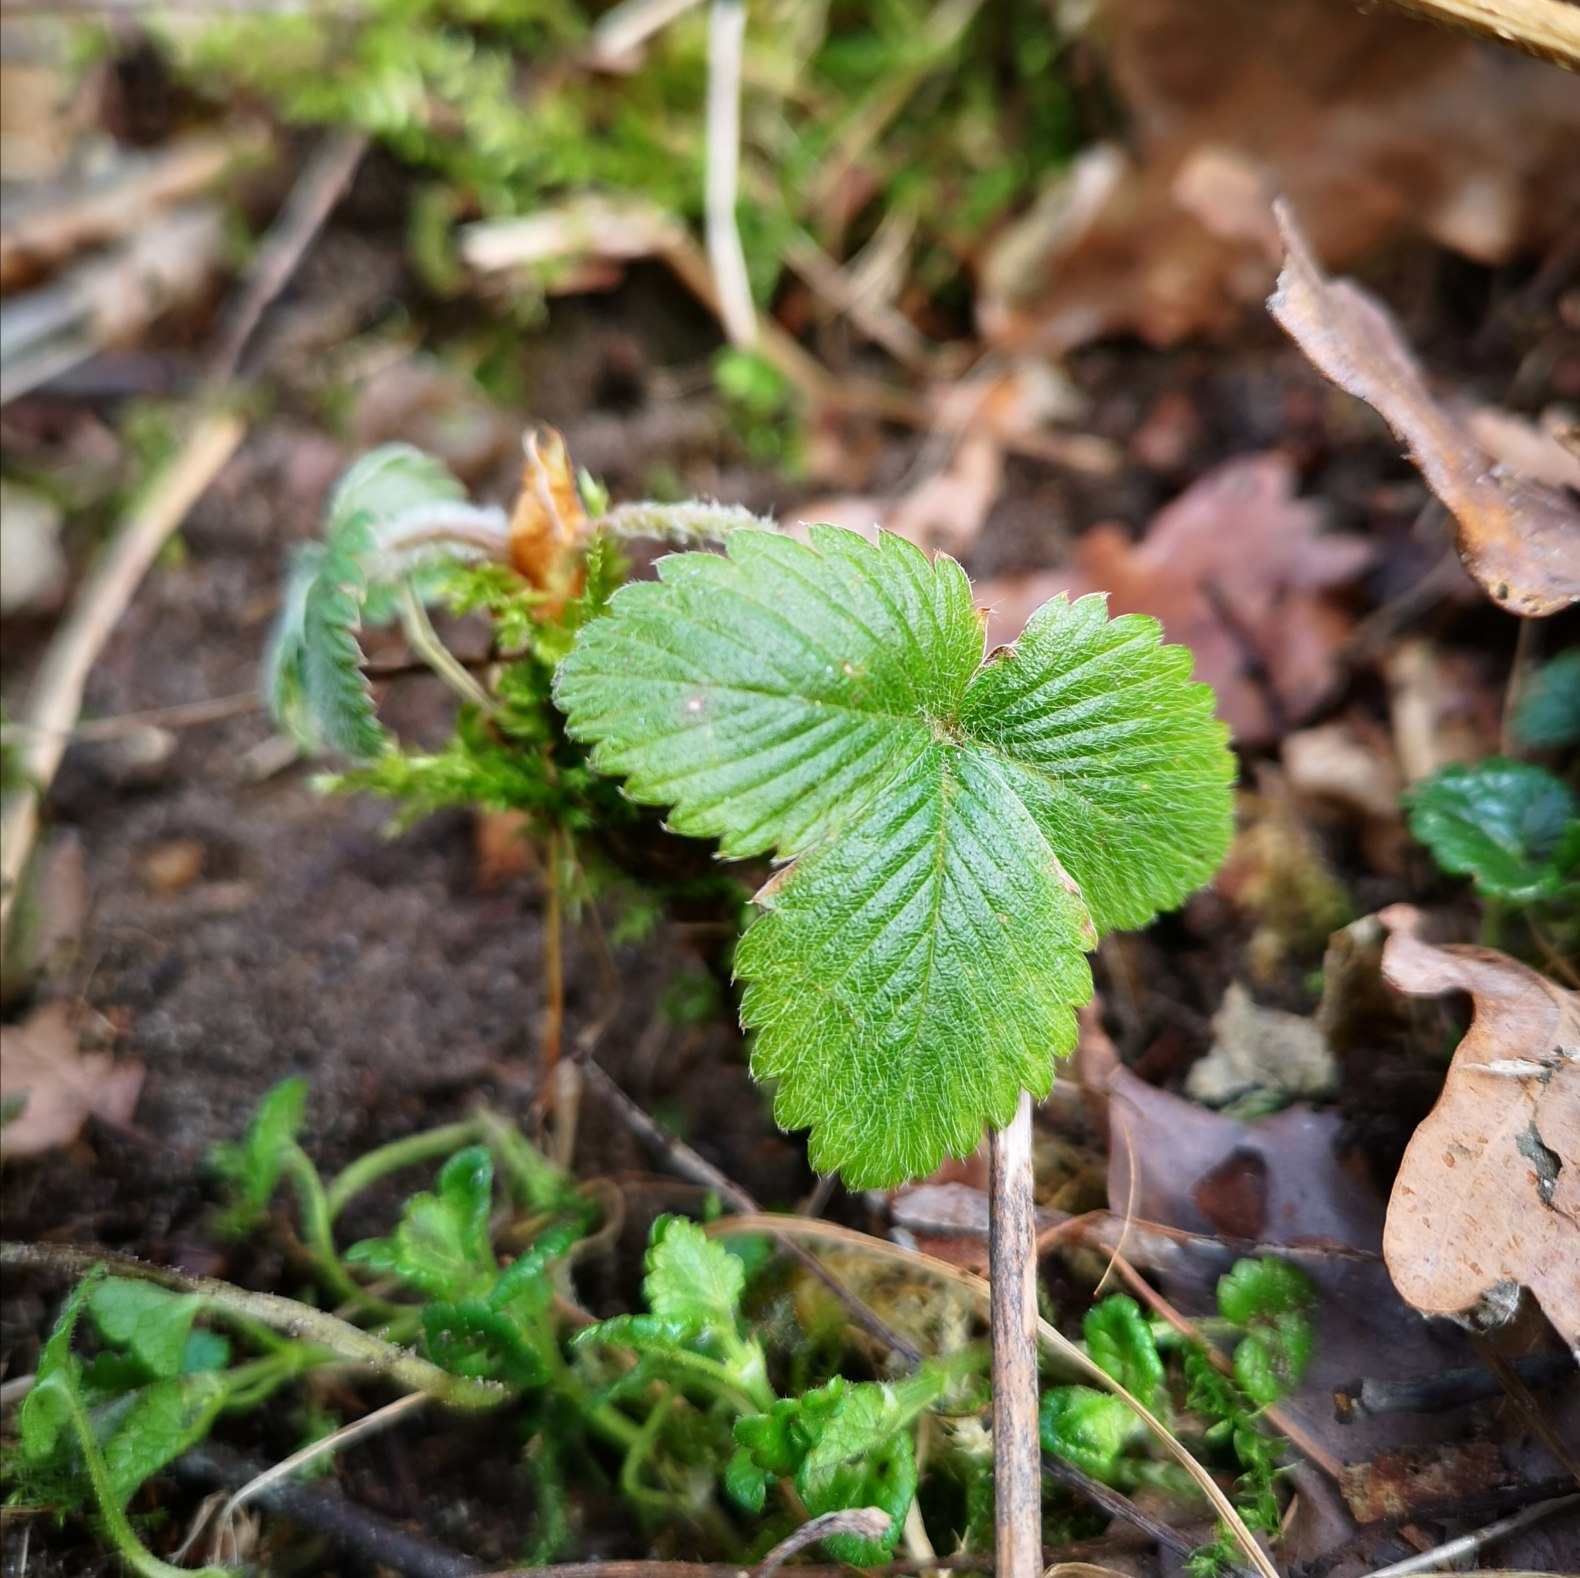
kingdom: Plantae
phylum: Tracheophyta
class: Magnoliopsida
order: Rosales
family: Rosaceae
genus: Fragaria
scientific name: Fragaria vesca
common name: Skov-jordbær
